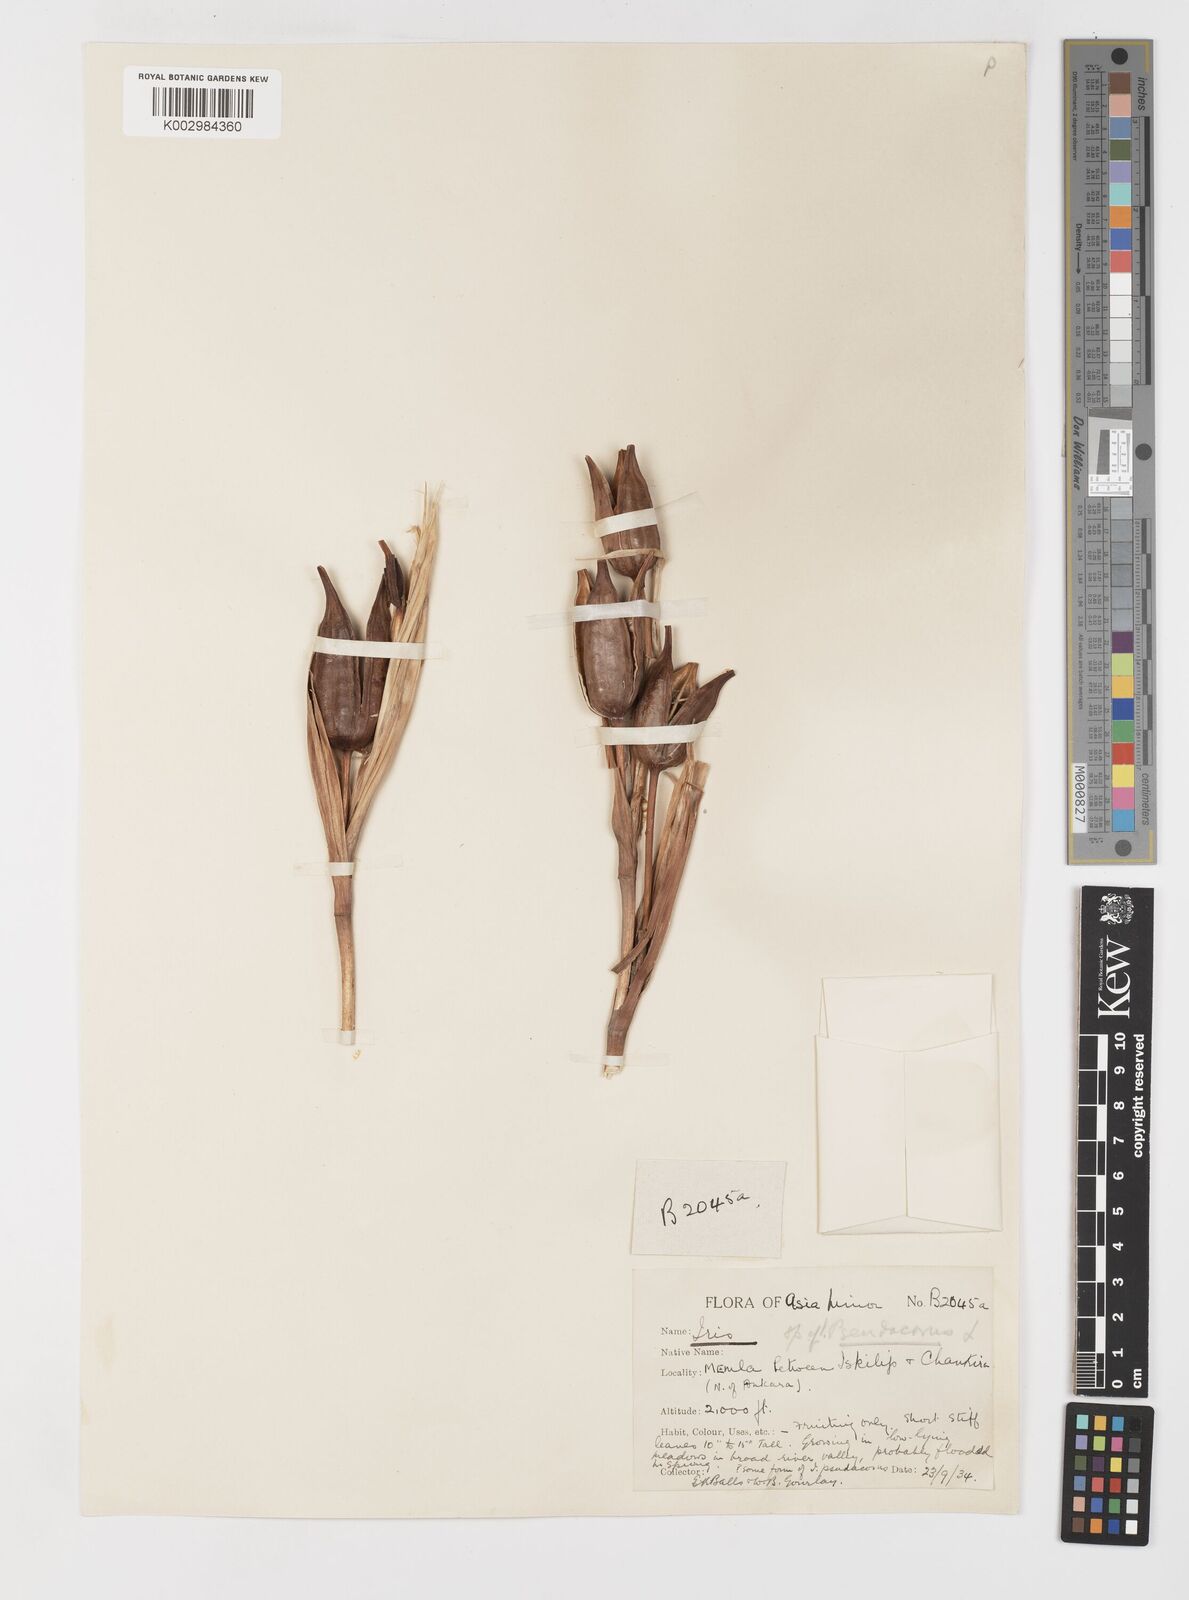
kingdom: Plantae
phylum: Tracheophyta
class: Liliopsida
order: Asparagales
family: Iridaceae
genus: Iris
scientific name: Iris orientalis
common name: Turkish iris
